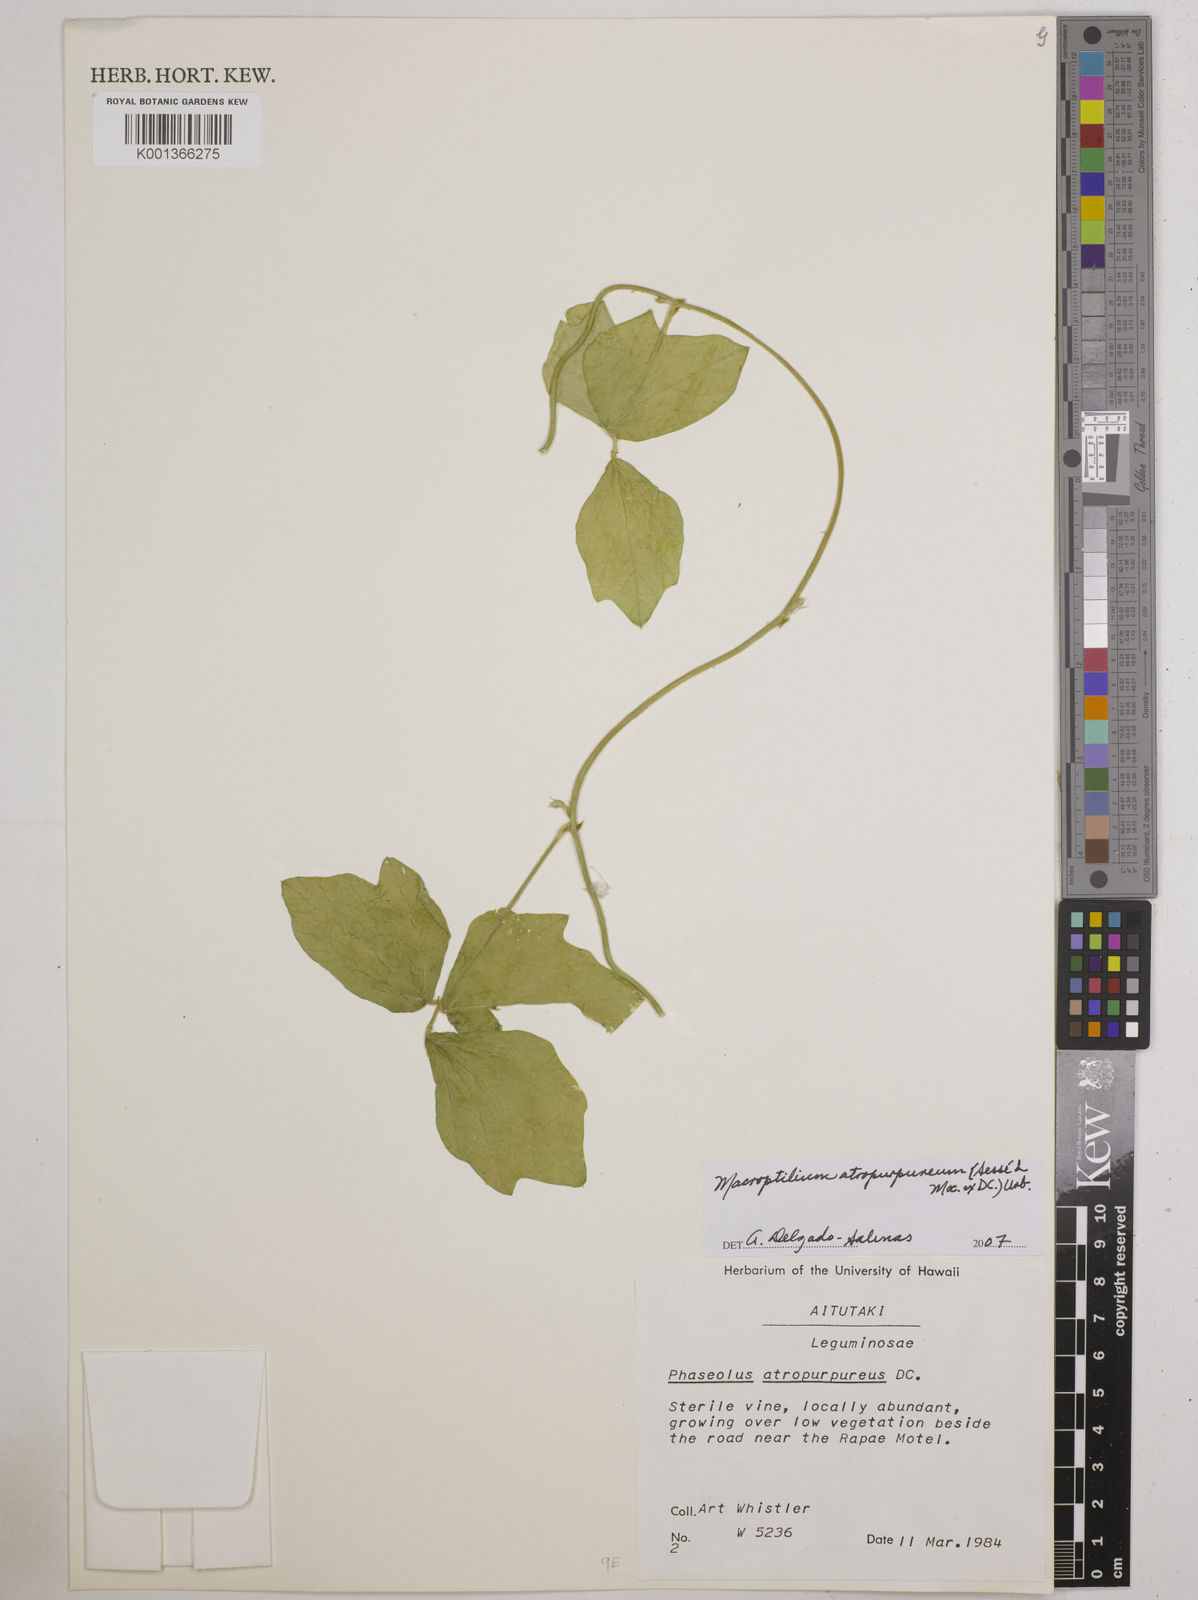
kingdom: Plantae
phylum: Tracheophyta
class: Magnoliopsida
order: Fabales
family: Fabaceae
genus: Macroptilium
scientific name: Macroptilium atropurpureum
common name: Purple bushbean
